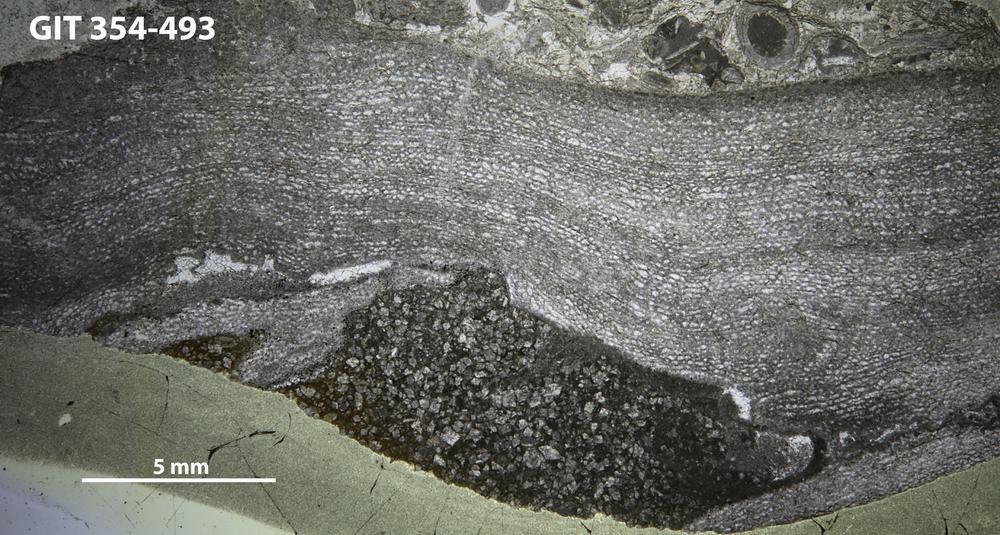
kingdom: Animalia
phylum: Porifera
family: Clathrodictyidae
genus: Clathrodictyon
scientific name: Clathrodictyon kudriavzevi
